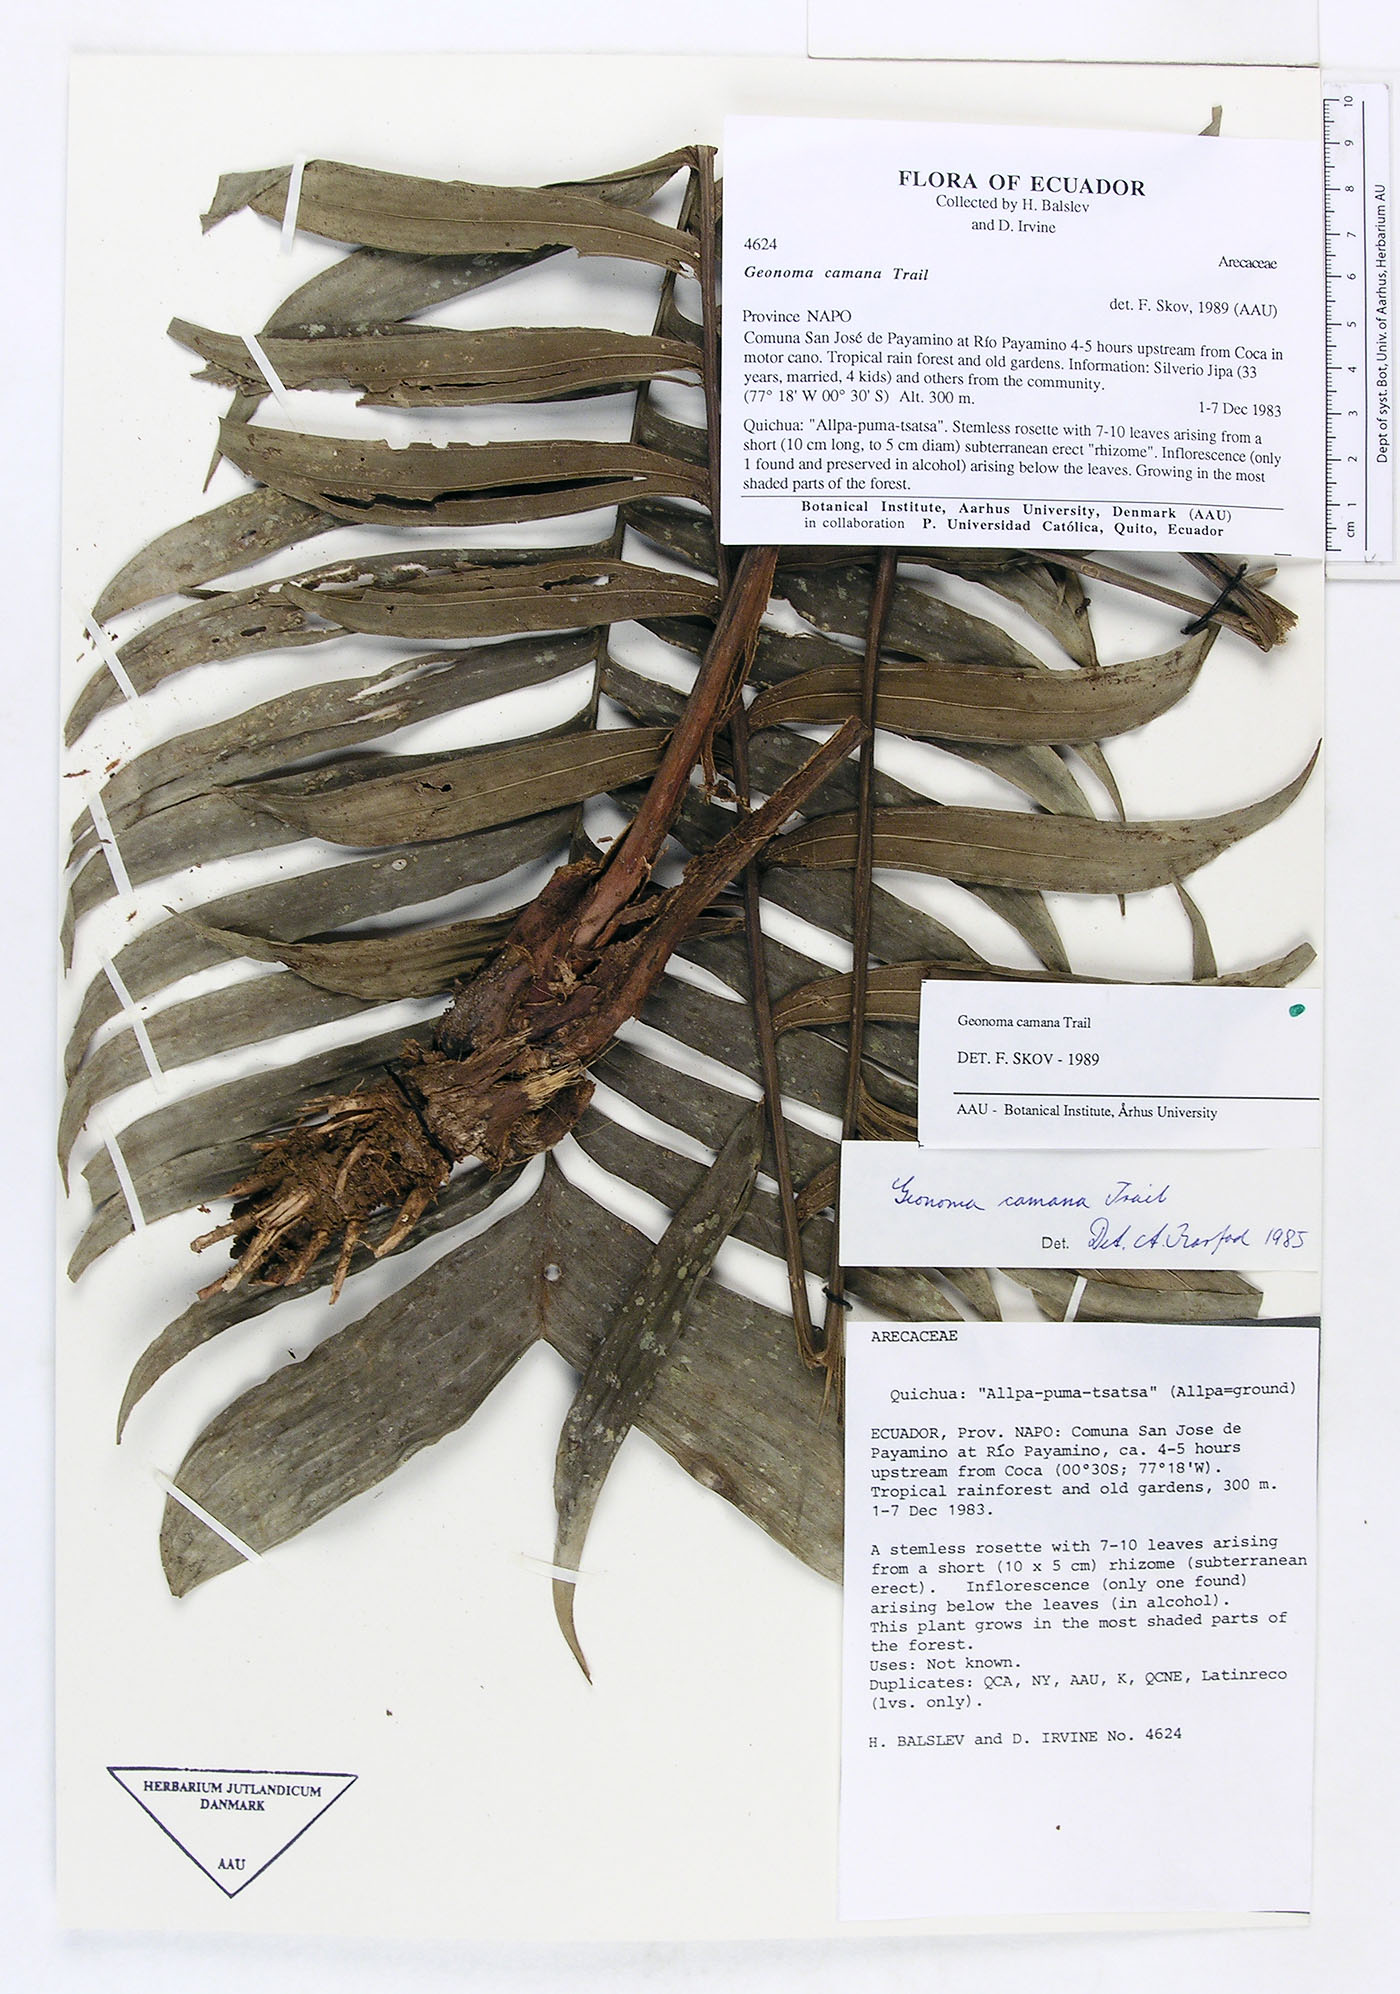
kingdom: Plantae
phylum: Tracheophyta
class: Liliopsida
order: Arecales
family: Arecaceae
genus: Geonoma
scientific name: Geonoma camana
